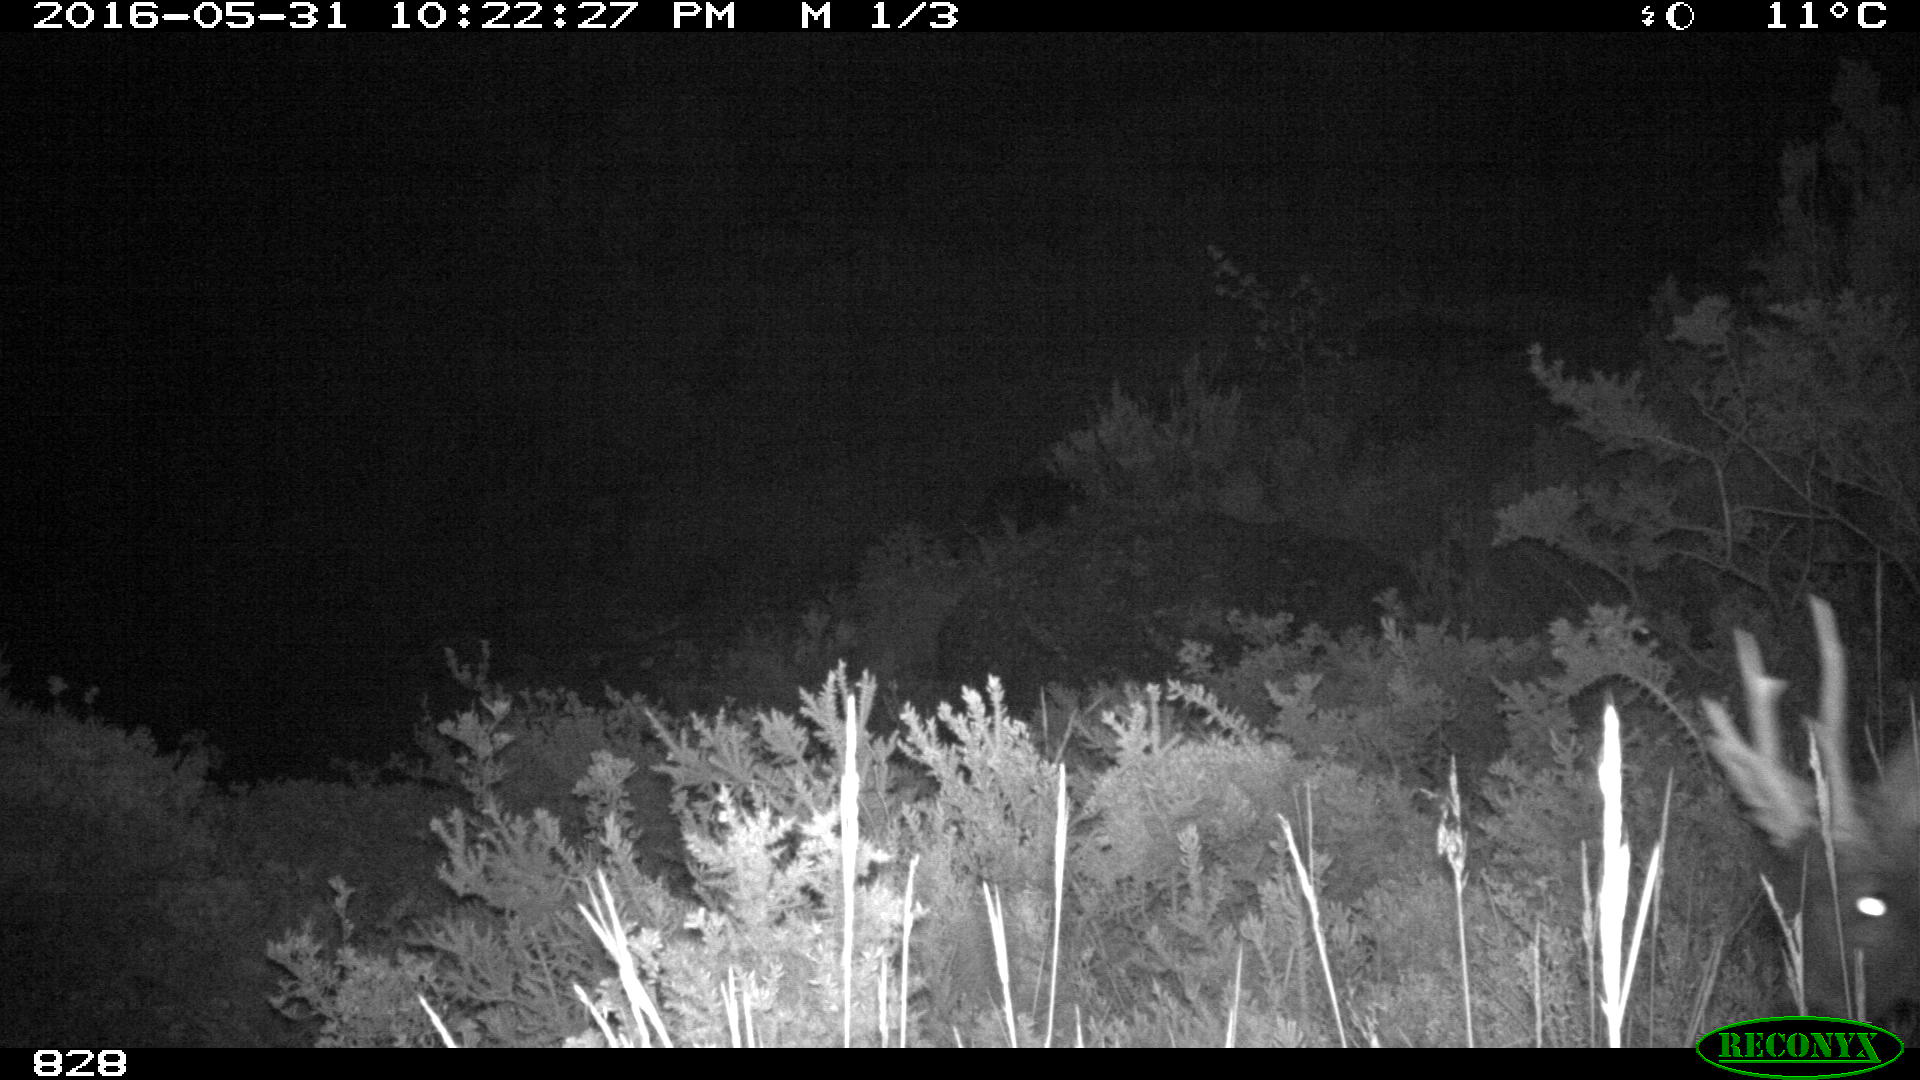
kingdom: Animalia
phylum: Chordata
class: Mammalia
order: Artiodactyla
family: Cervidae
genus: Capreolus
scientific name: Capreolus capreolus
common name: Western roe deer
